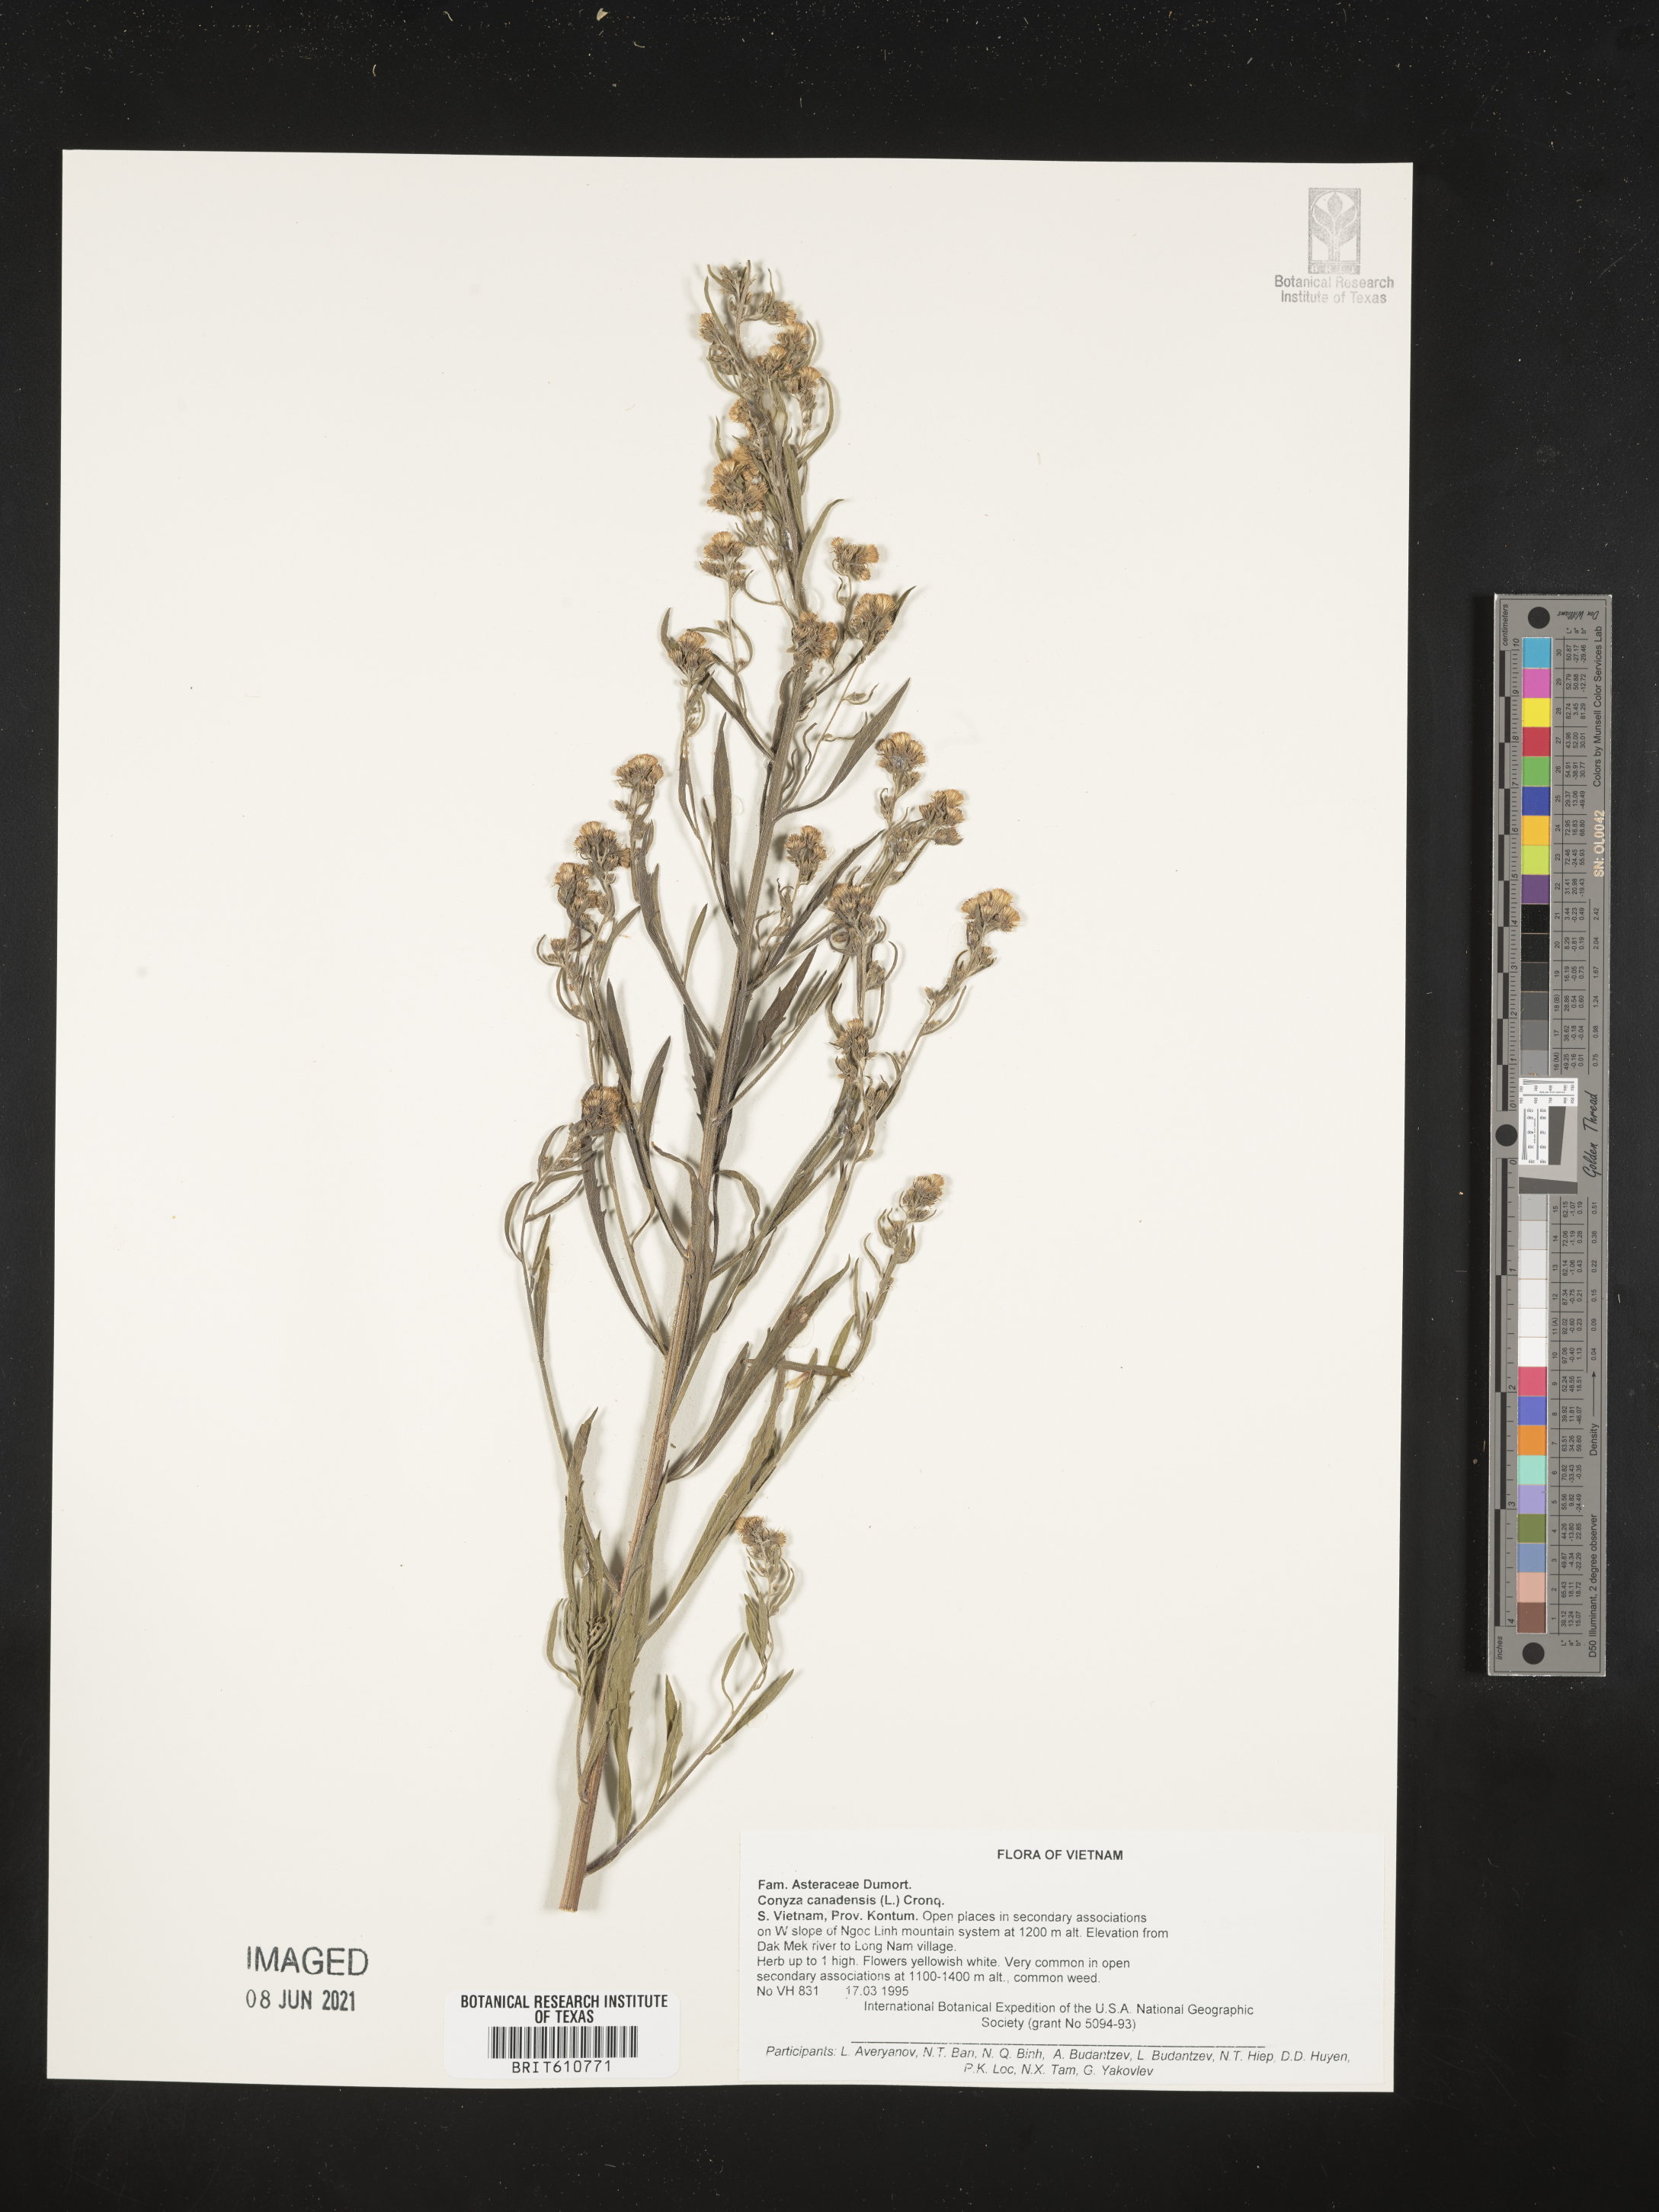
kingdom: Plantae
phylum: Tracheophyta
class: Magnoliopsida
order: Asterales
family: Asteraceae
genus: Erigeron
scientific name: Erigeron canadensis
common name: Canadian fleabane
